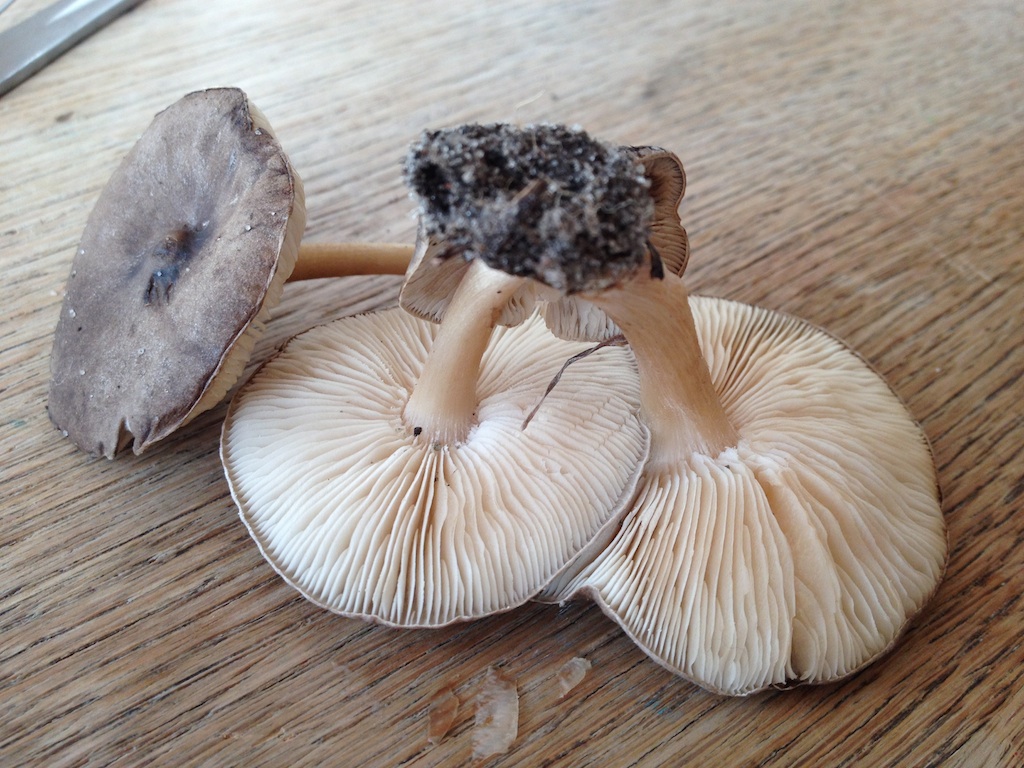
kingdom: Fungi
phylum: Basidiomycota
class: Agaricomycetes
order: Agaricales
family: Tricholomataceae
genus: Melanoleuca
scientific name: Melanoleuca polioleuca
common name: almindelig munkehat
